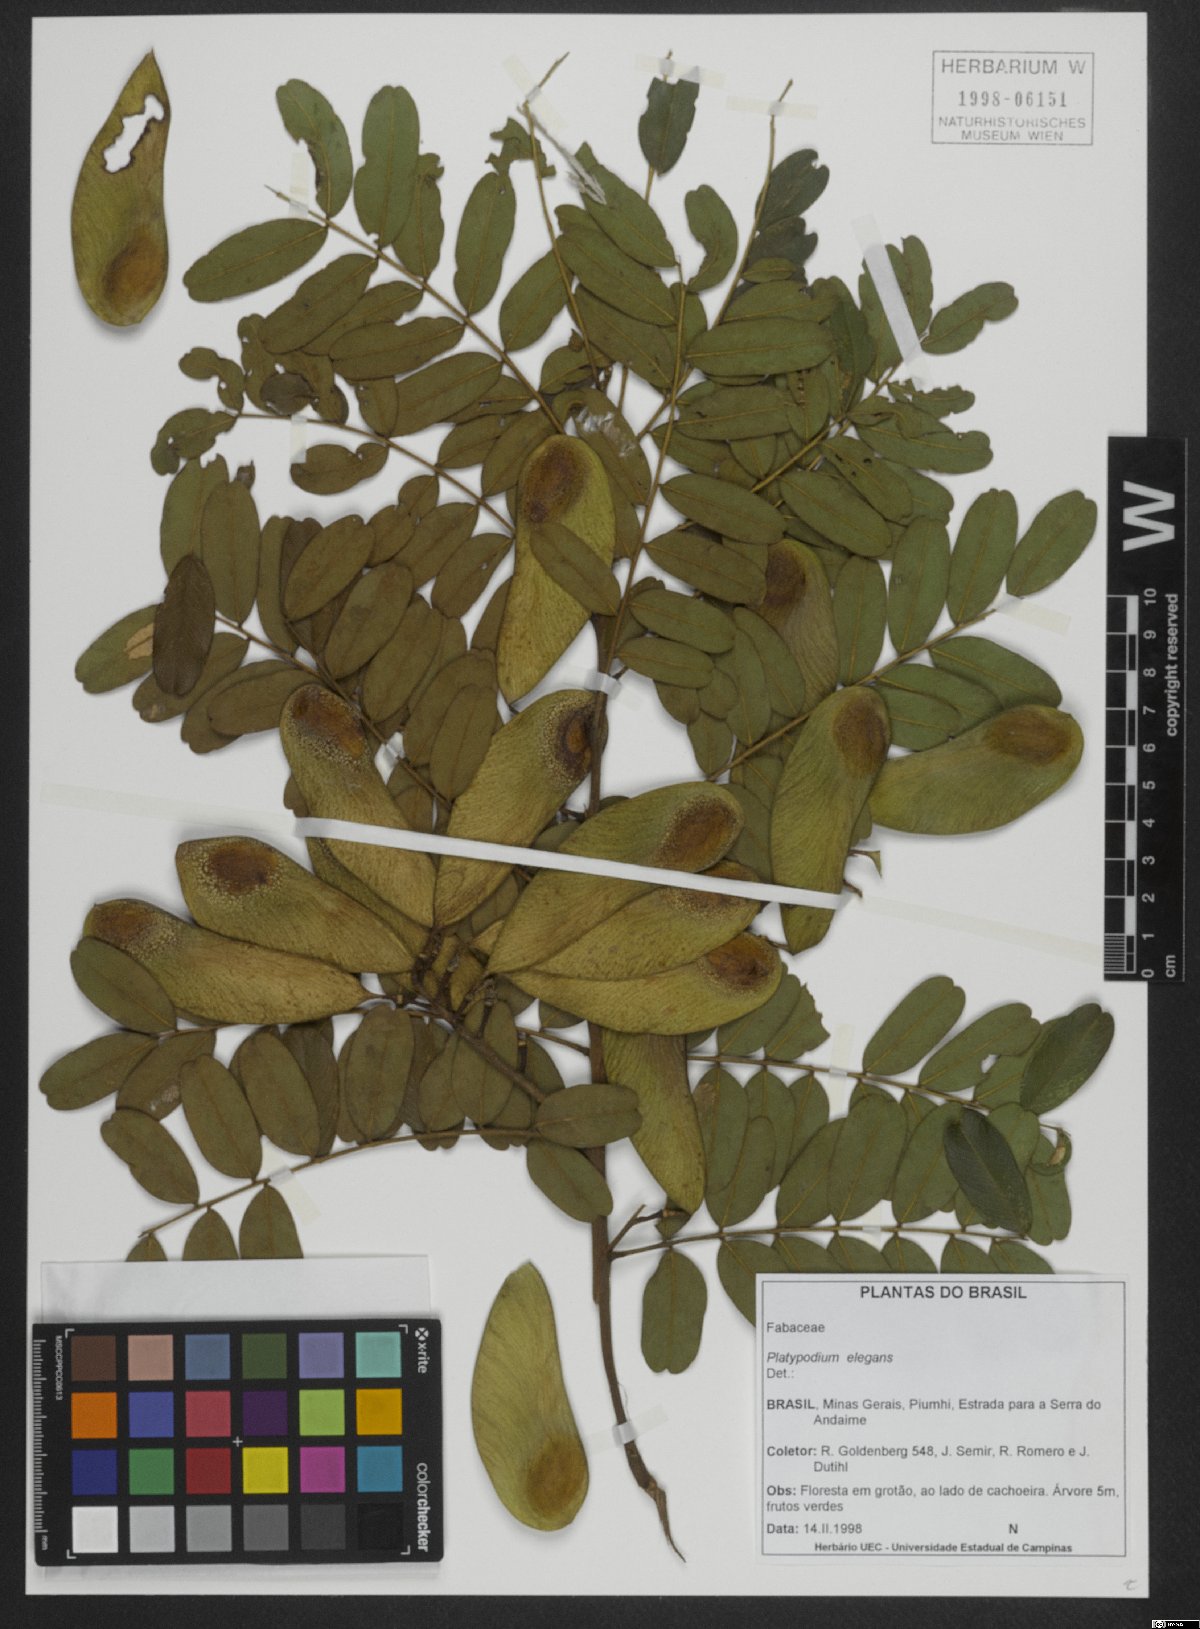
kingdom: Plantae
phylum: Tracheophyta
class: Magnoliopsida
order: Fabales
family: Fabaceae
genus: Platypodium
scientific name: Platypodium elegans
